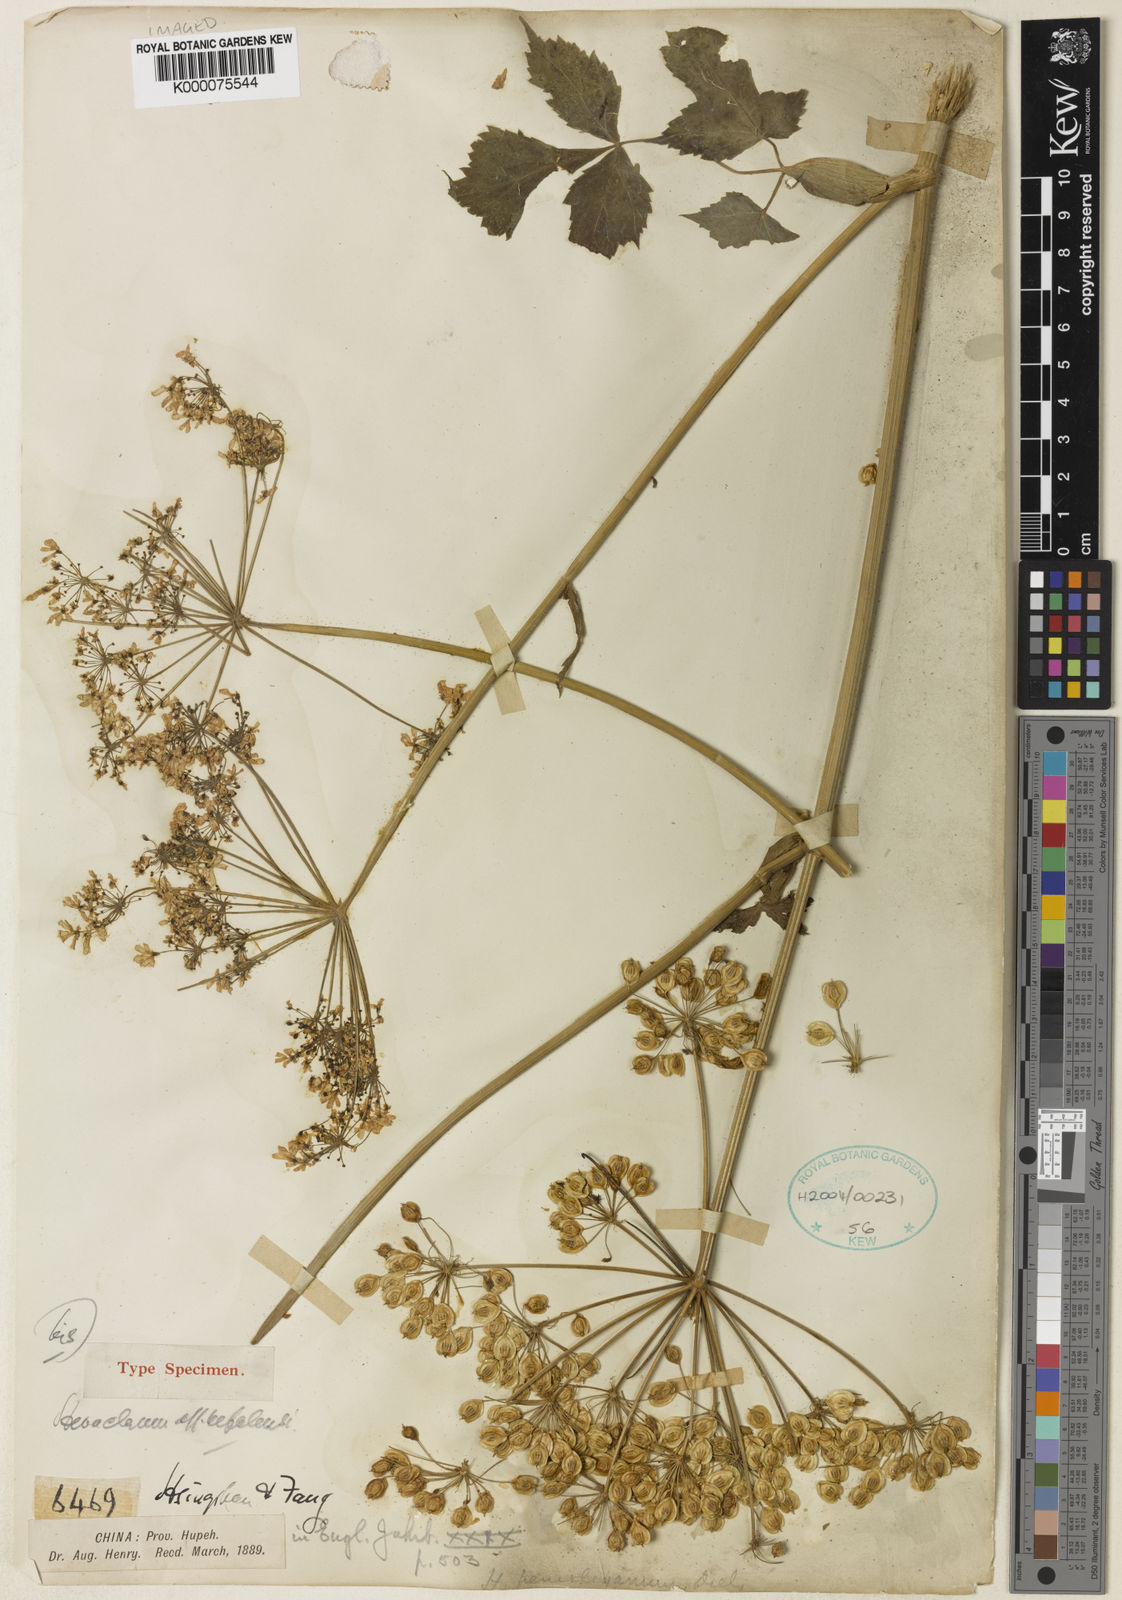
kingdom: Plantae
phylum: Tracheophyta
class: Magnoliopsida
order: Apiales
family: Apiaceae
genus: Heracleum
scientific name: Heracleum hemsleyanum
